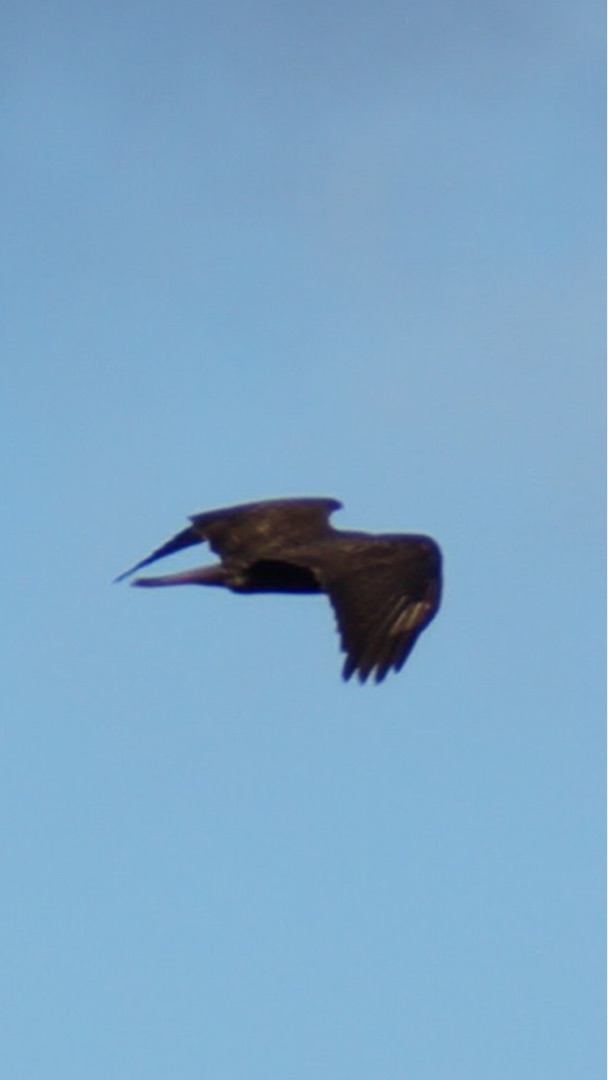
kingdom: Animalia
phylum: Chordata
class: Aves
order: Accipitriformes
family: Accipitridae
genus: Buteo
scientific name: Buteo buteo
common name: Musvåge
